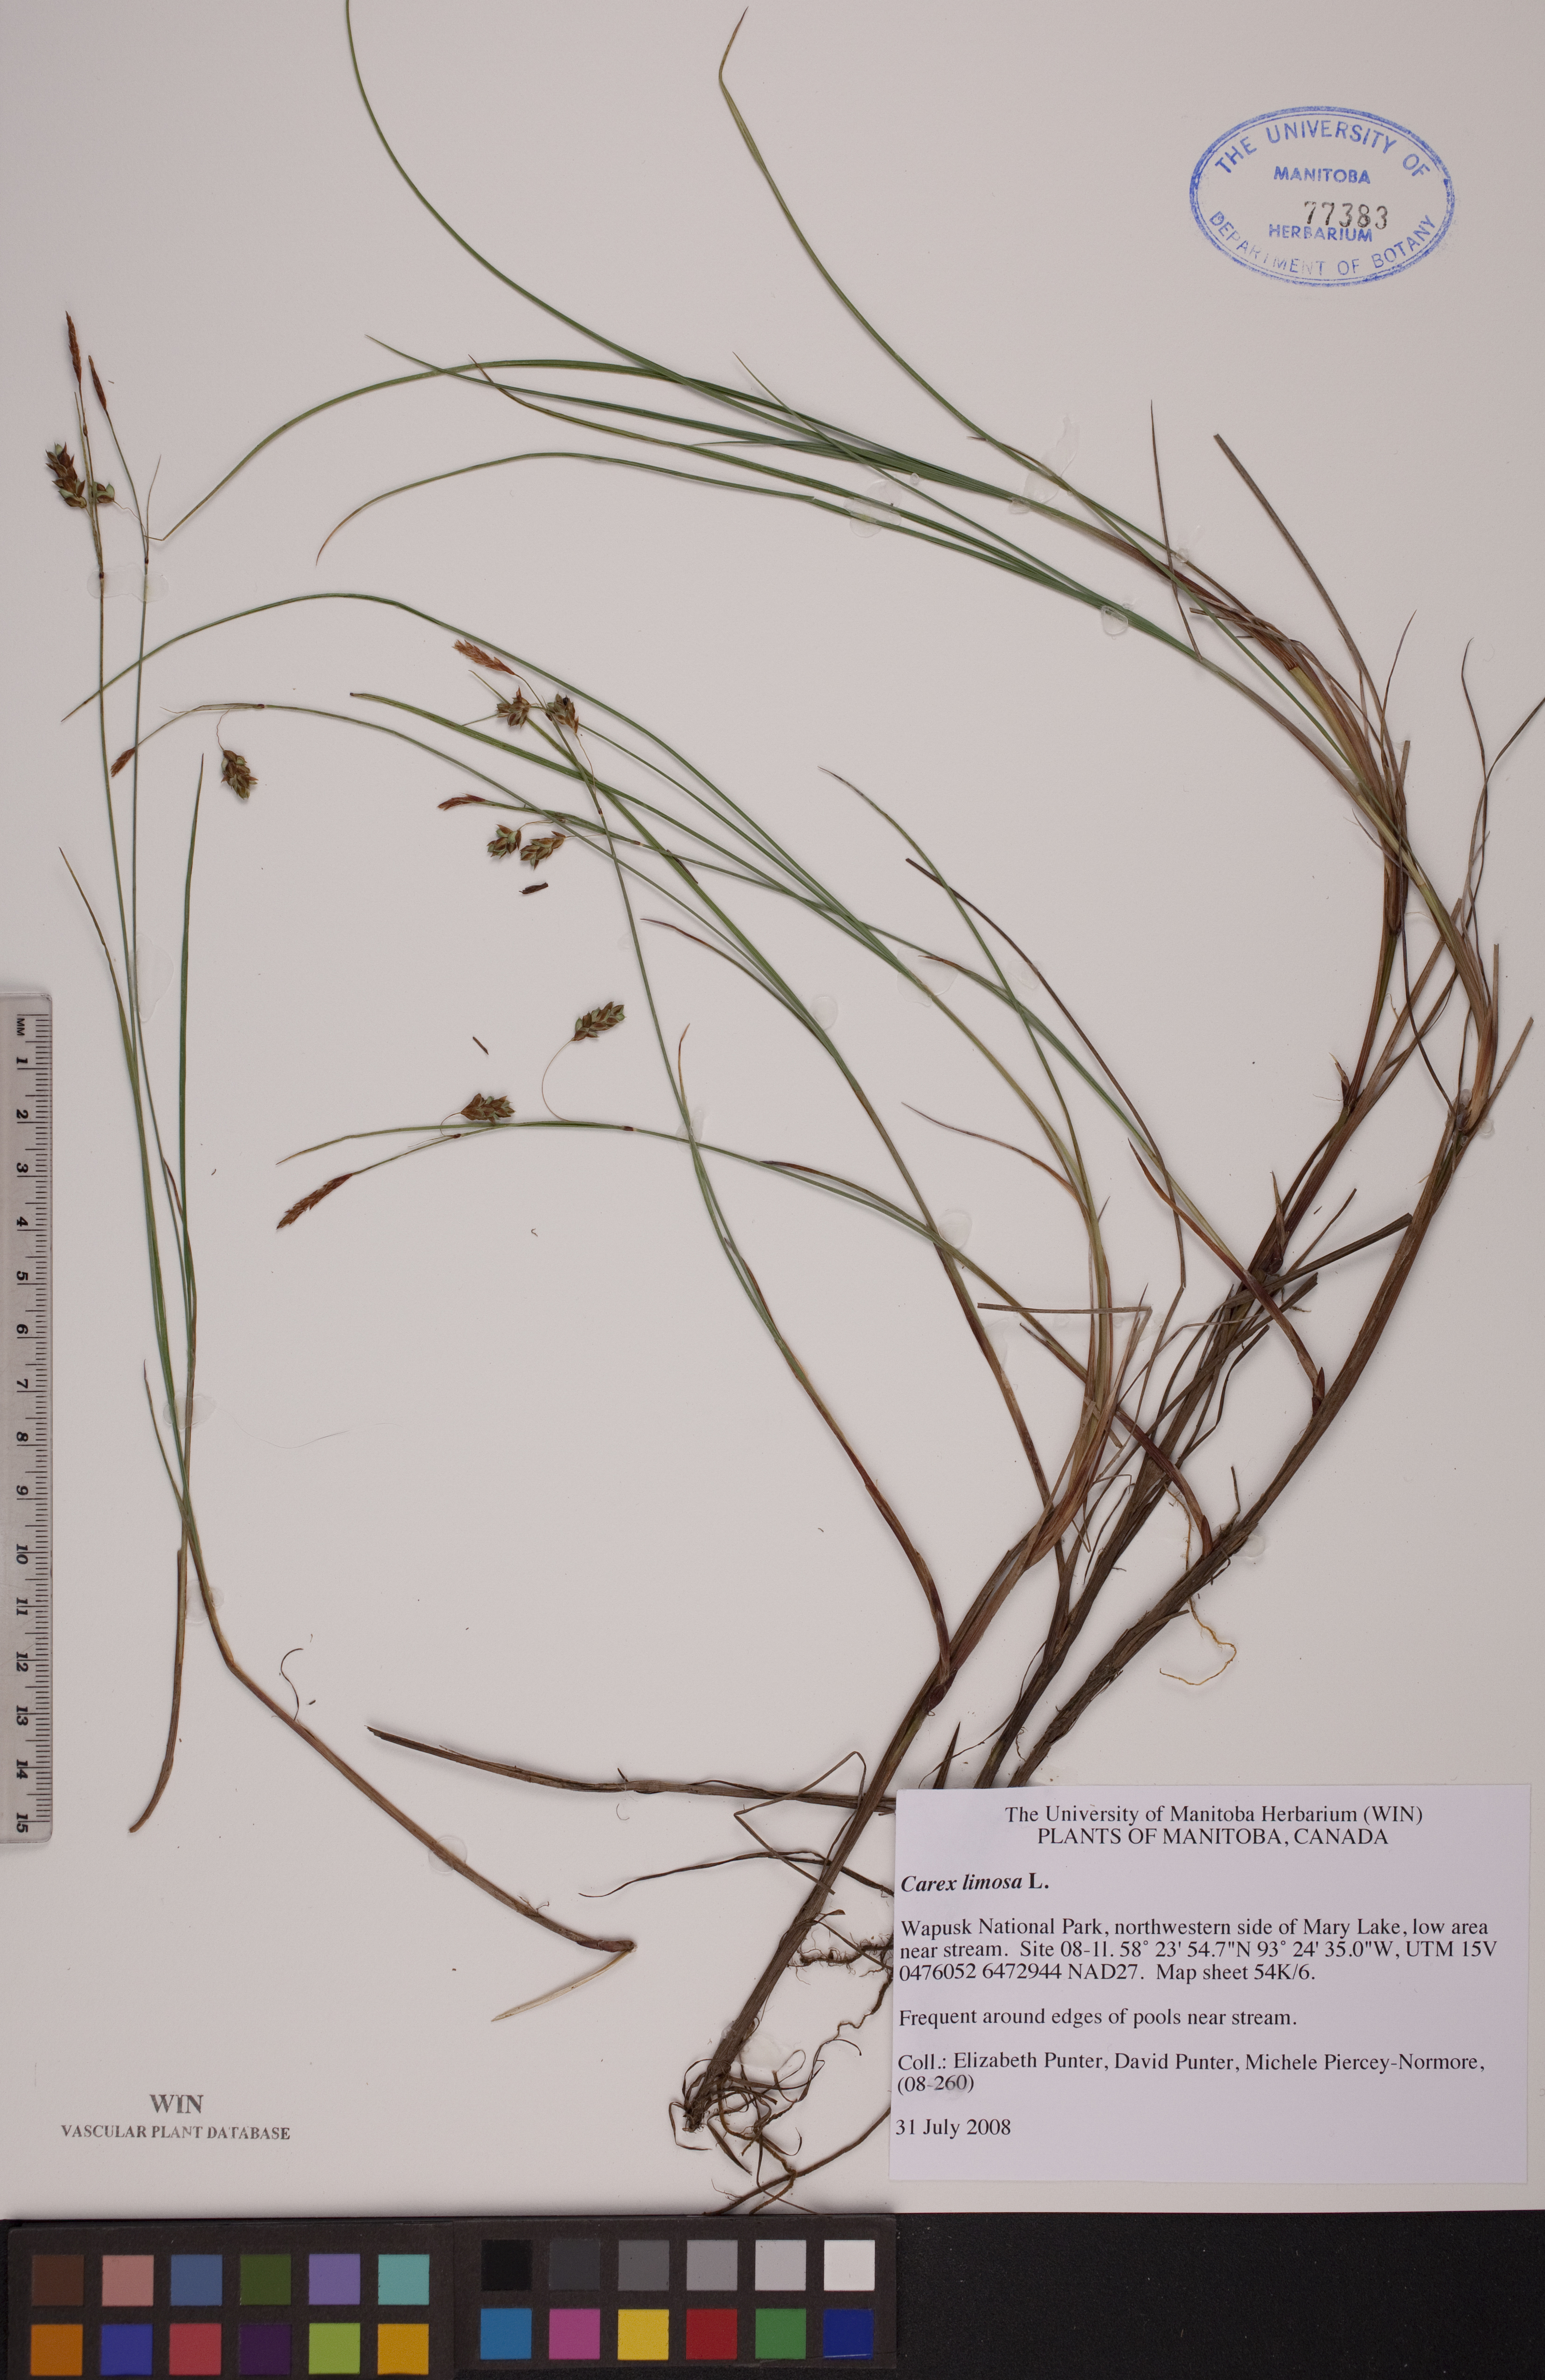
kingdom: Plantae
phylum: Tracheophyta
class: Liliopsida
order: Poales
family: Cyperaceae
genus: Carex
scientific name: Carex limosa
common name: Bog sedge
